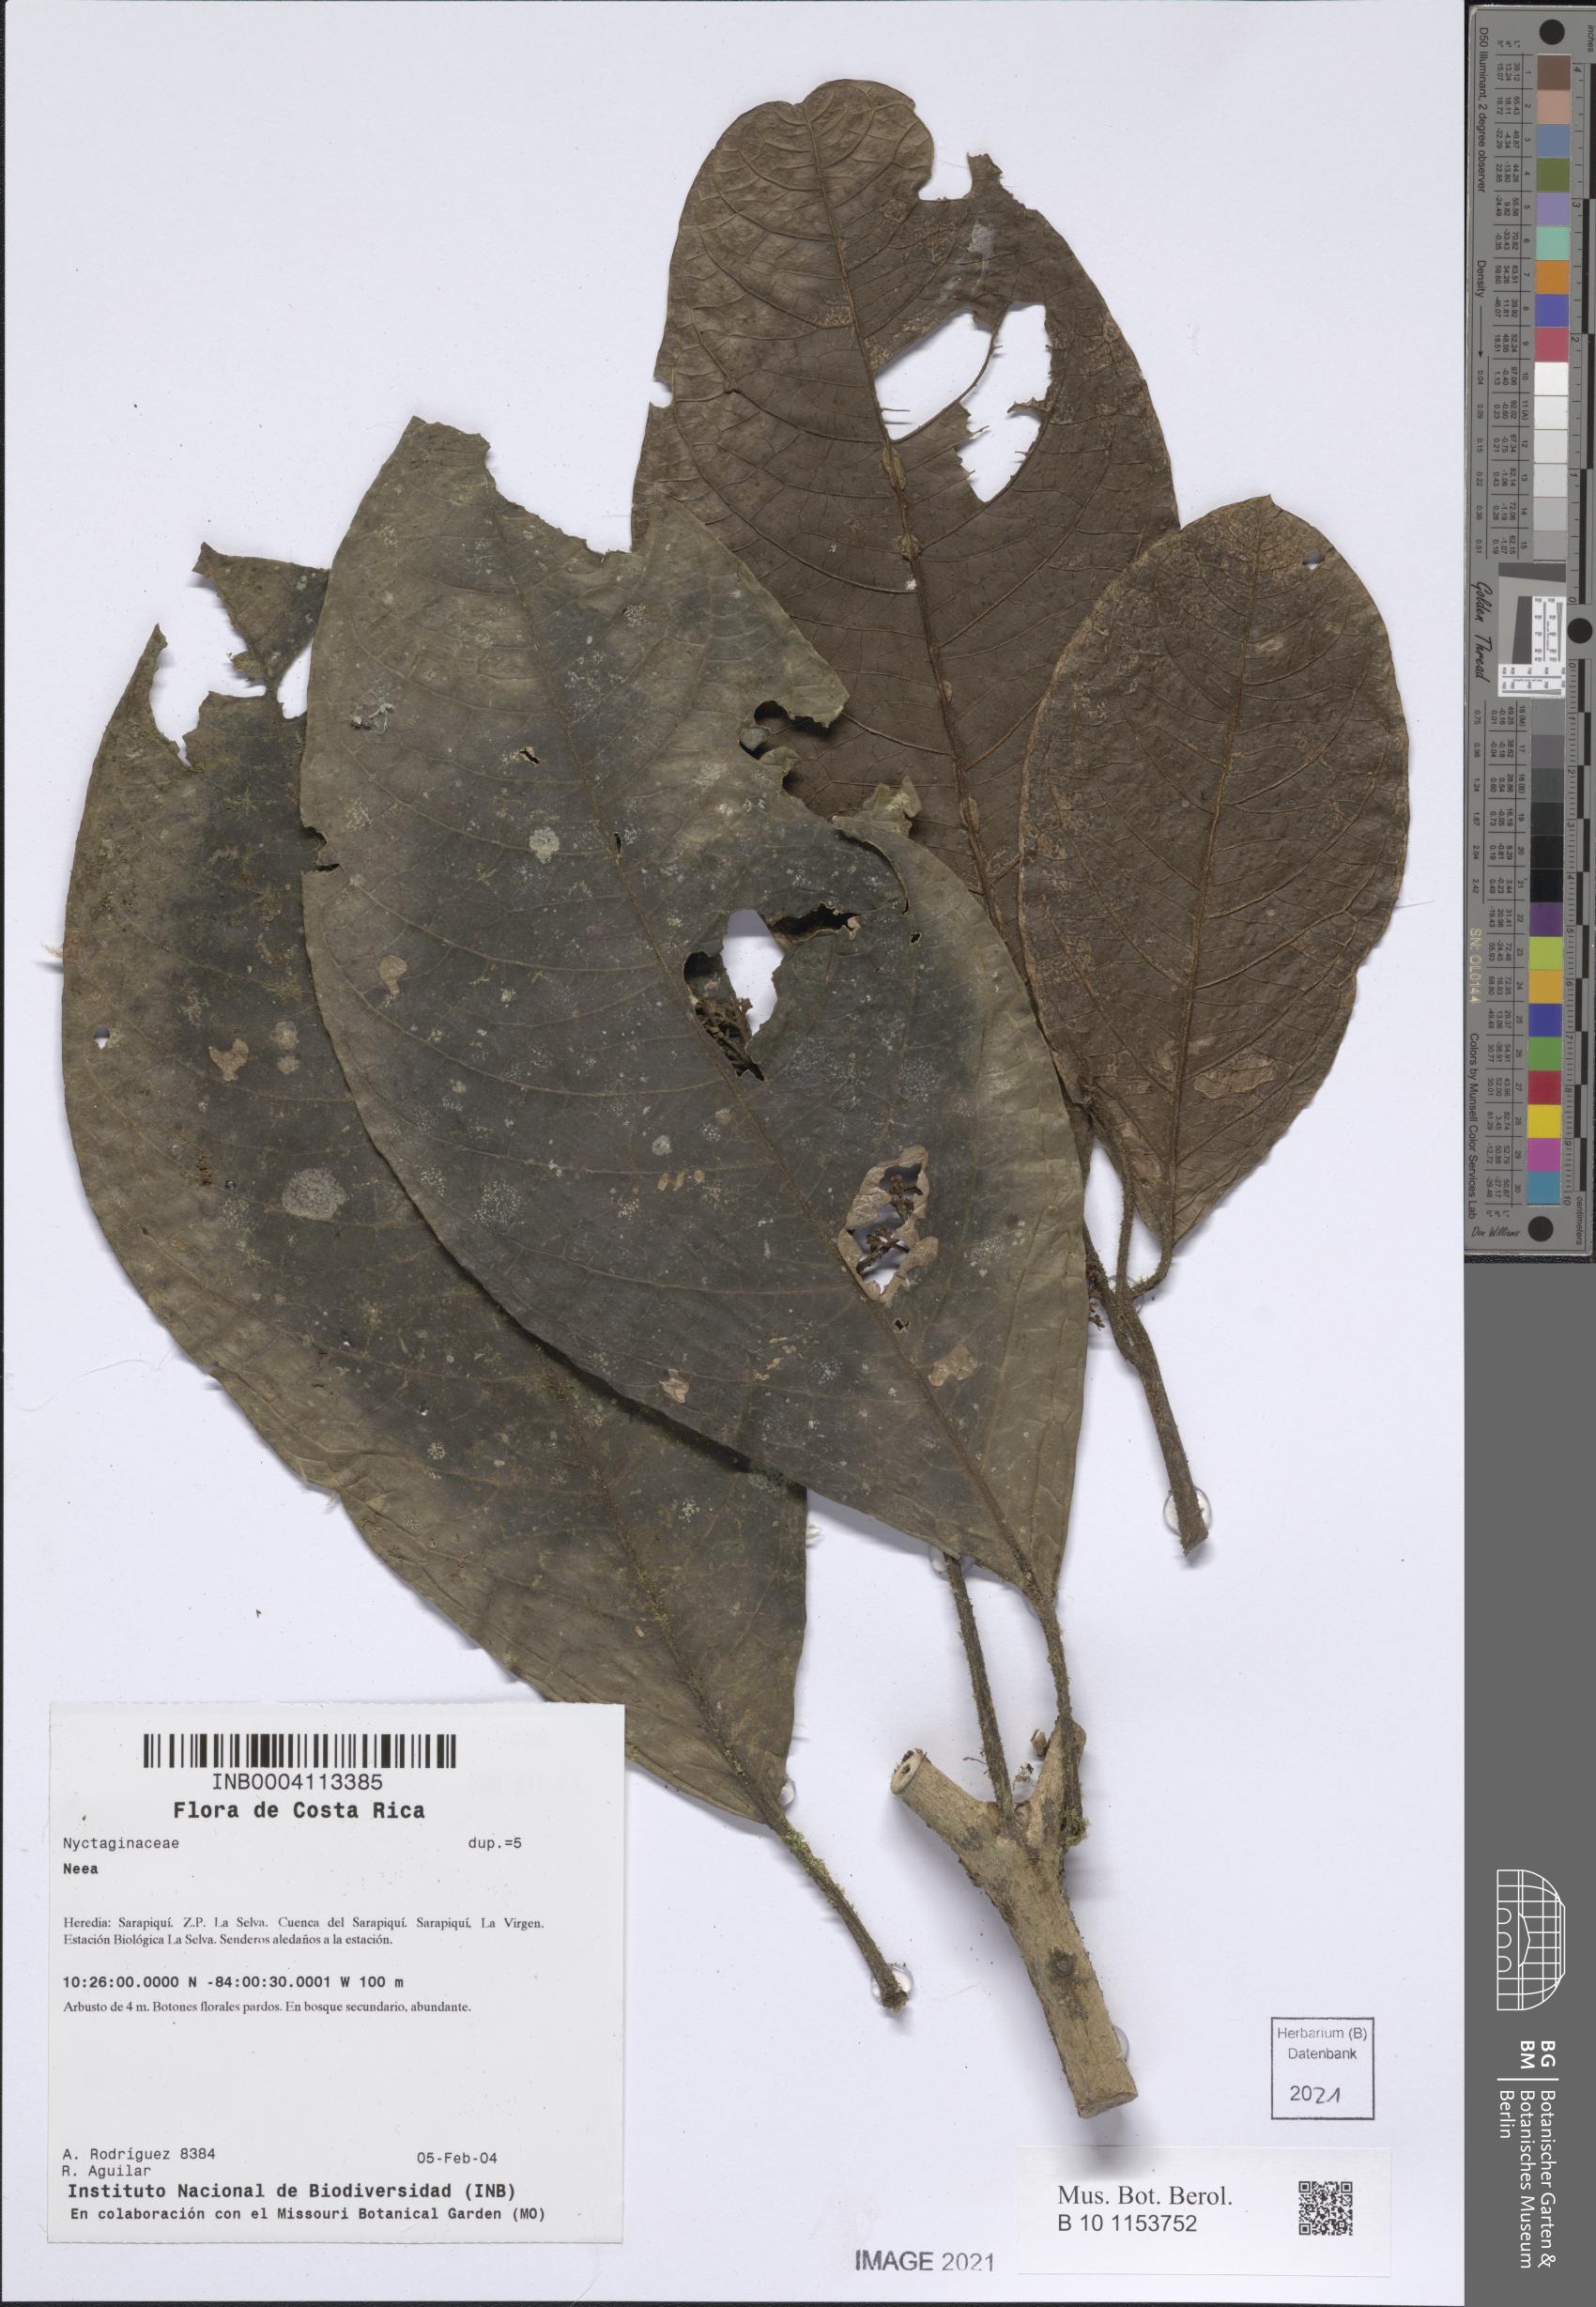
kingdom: Plantae
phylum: Tracheophyta
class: Magnoliopsida
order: Caryophyllales
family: Nyctaginaceae
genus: Neea
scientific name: Neea
